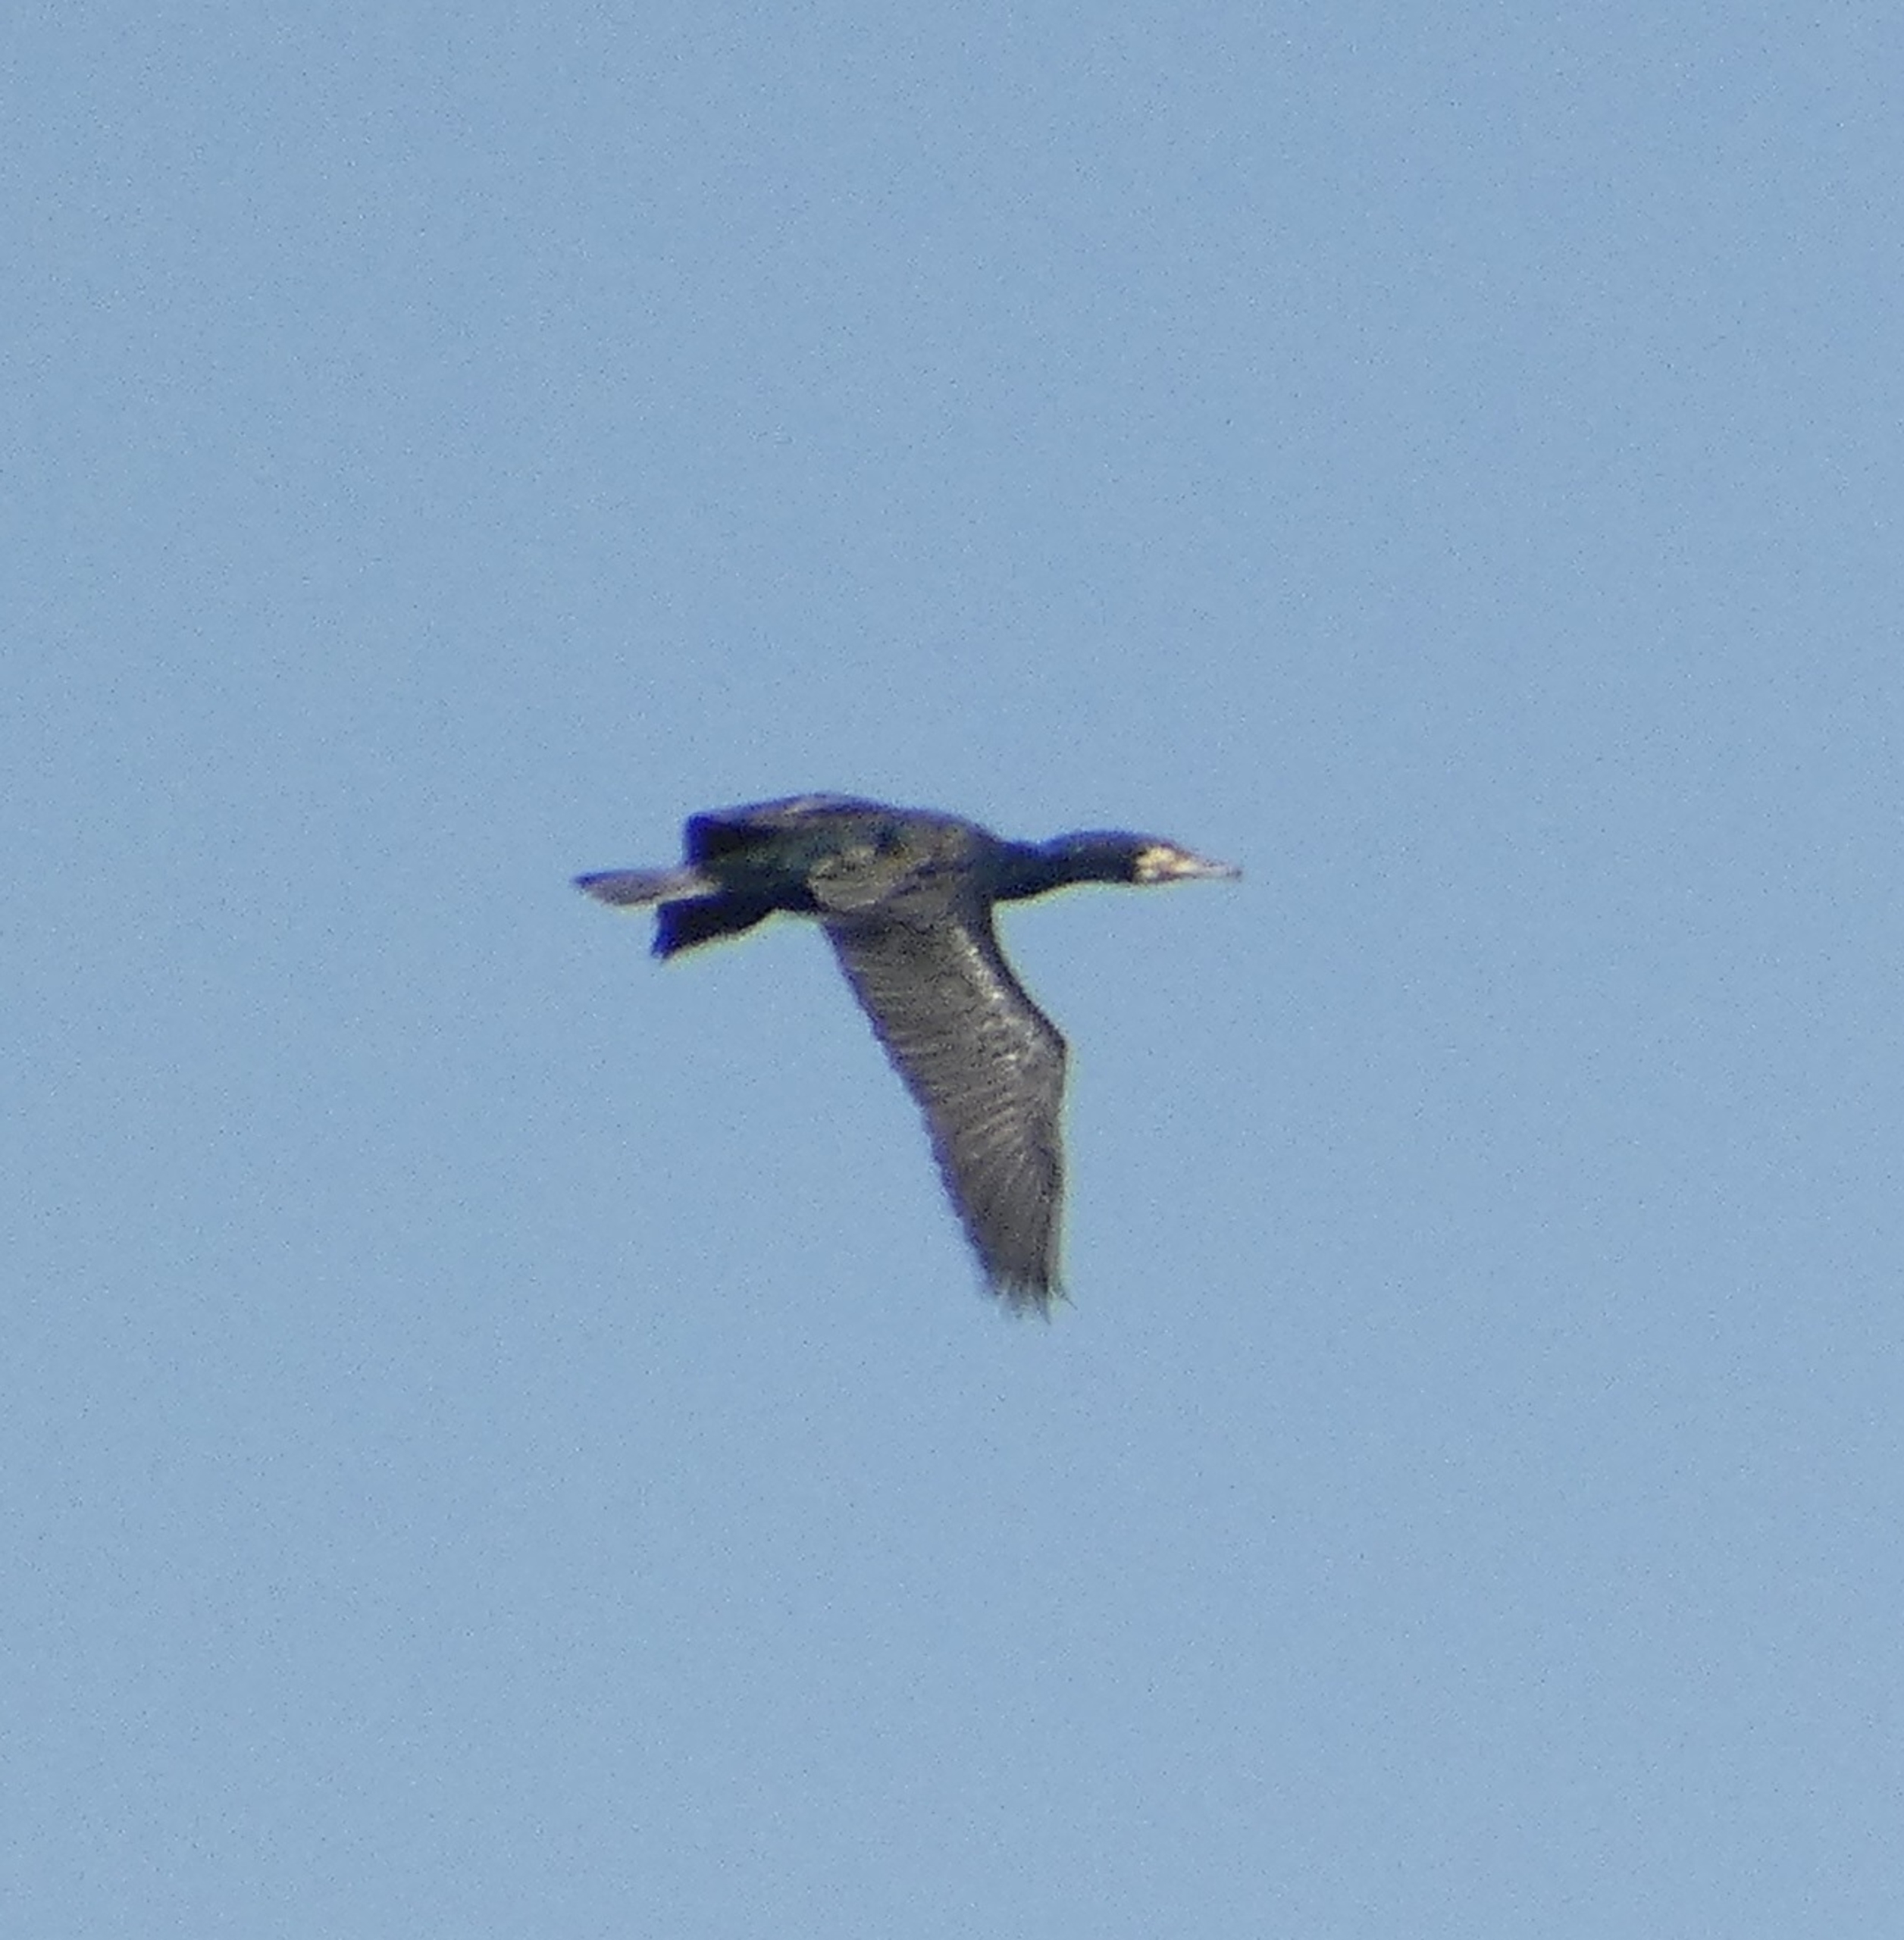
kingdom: Animalia
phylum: Chordata
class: Aves
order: Suliformes
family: Phalacrocoracidae
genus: Phalacrocorax
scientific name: Phalacrocorax carbo
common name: Skarv
